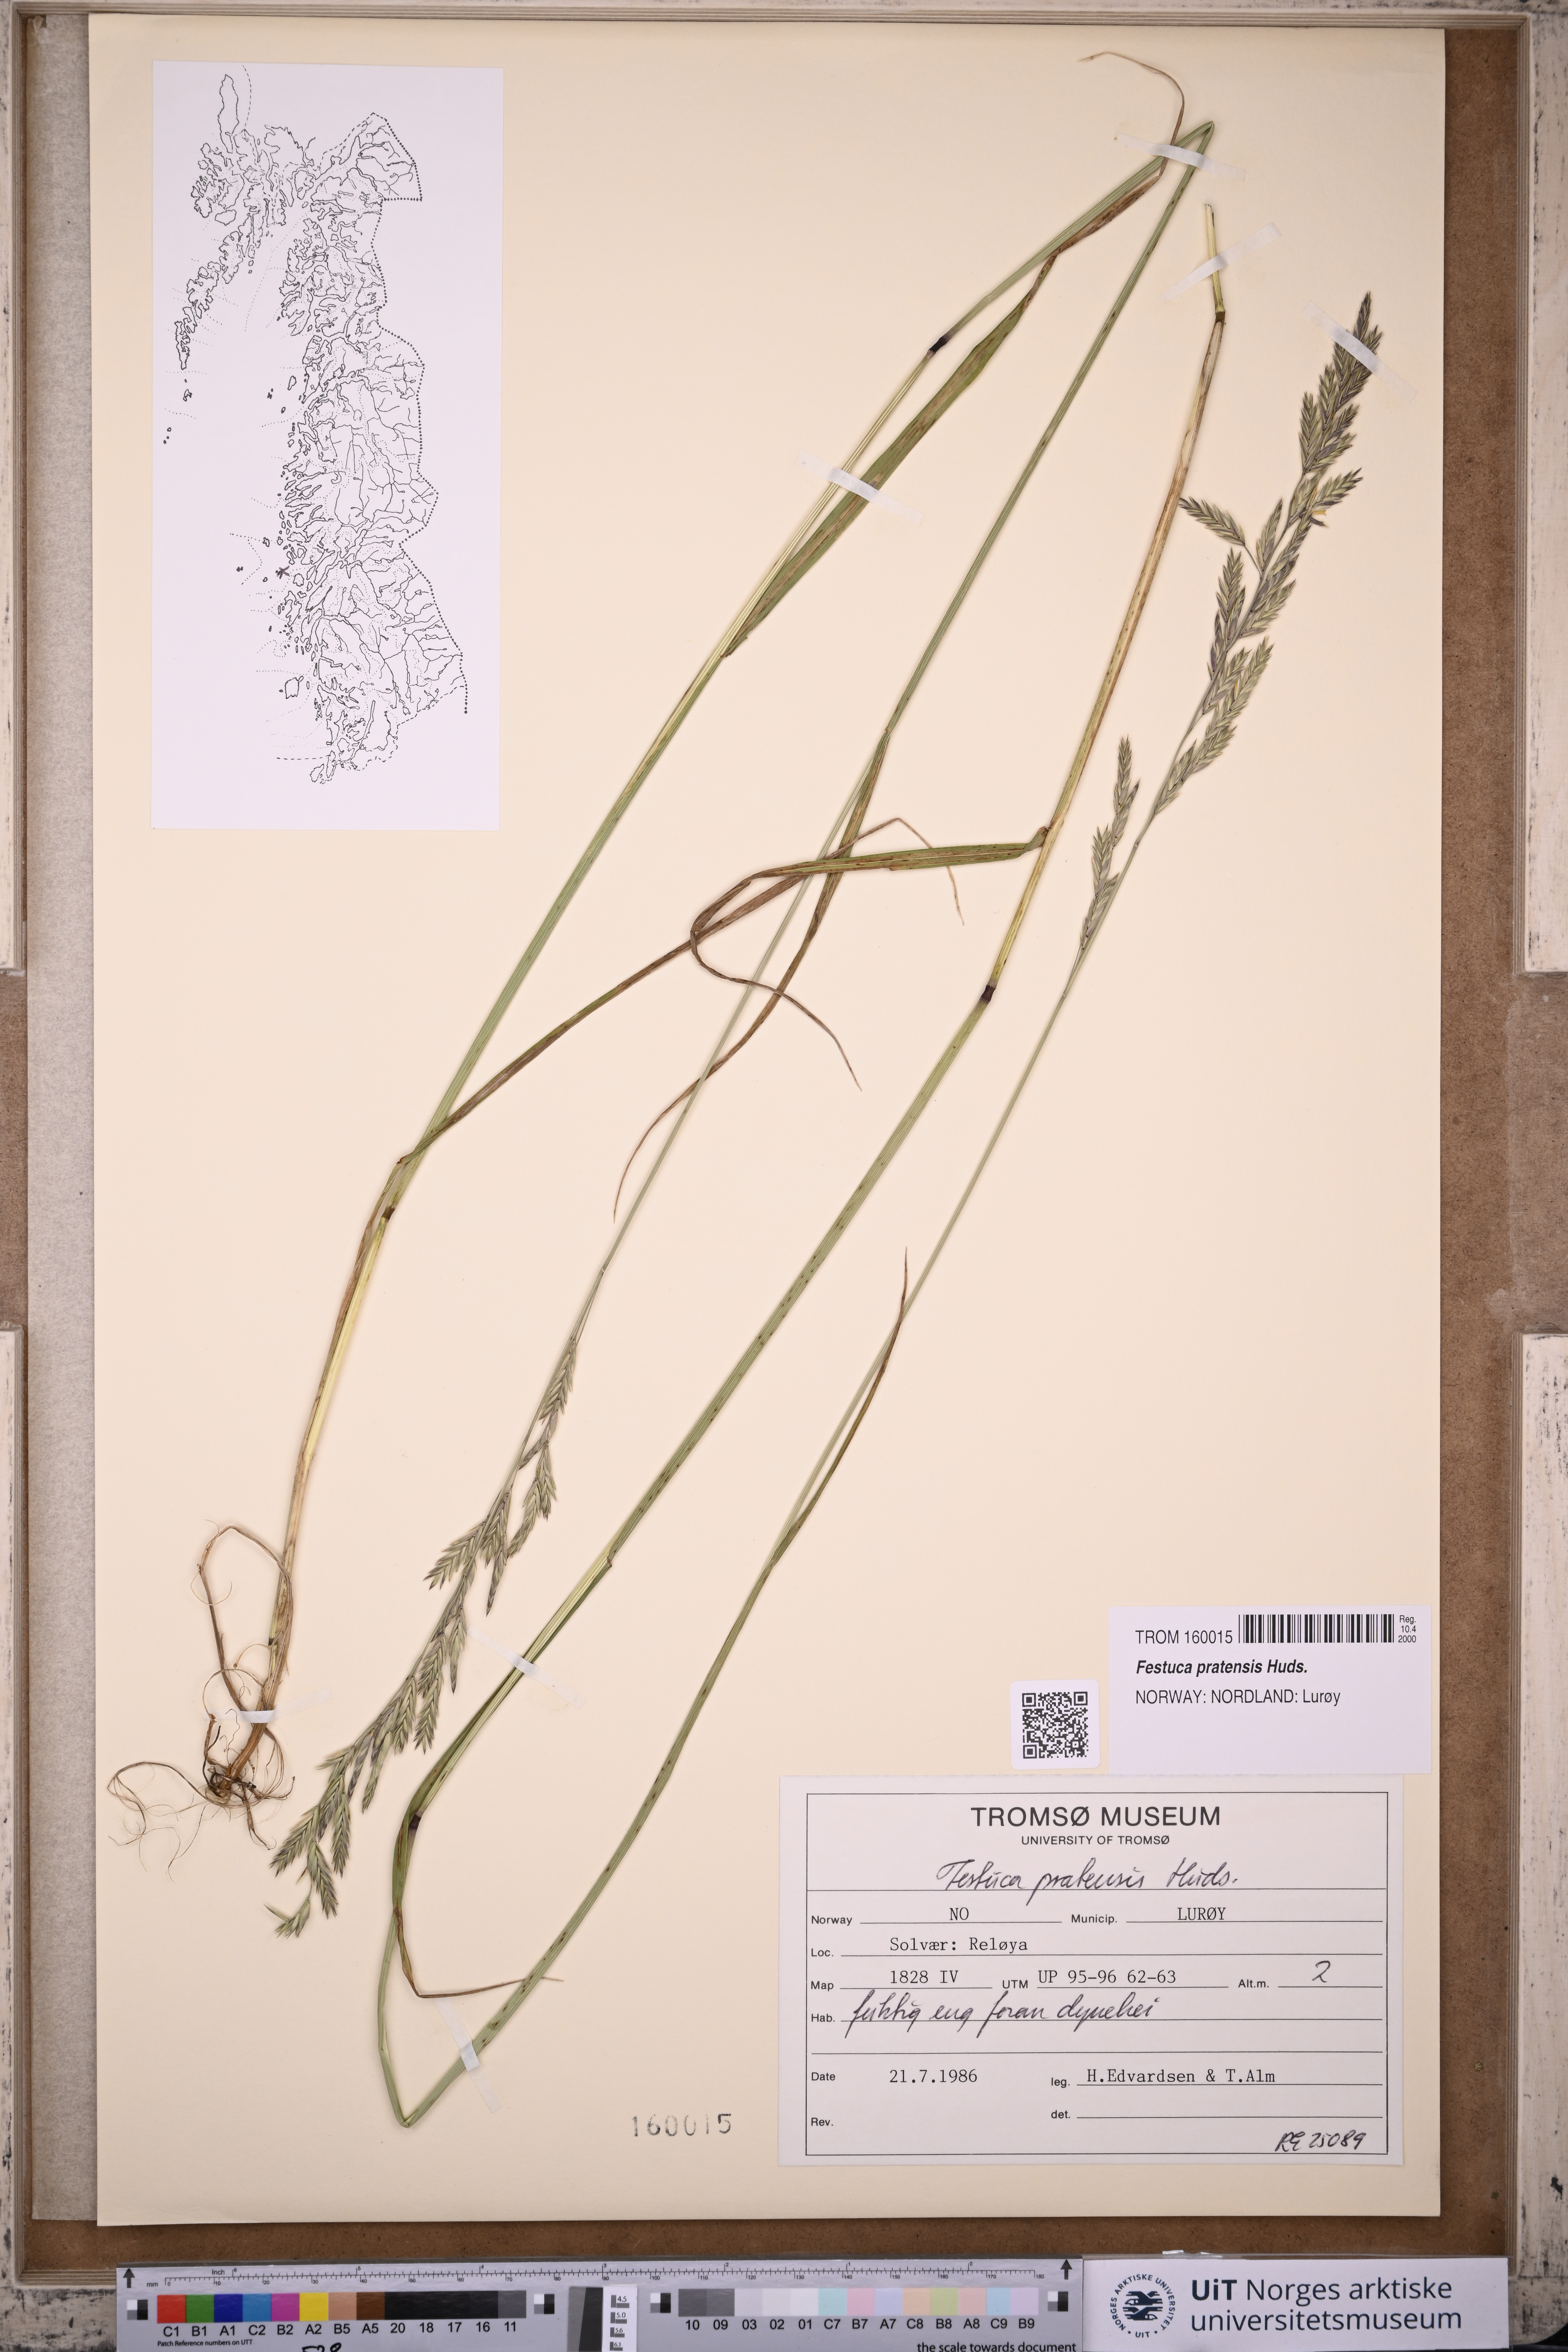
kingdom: Plantae
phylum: Tracheophyta
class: Liliopsida
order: Poales
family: Poaceae
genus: Lolium
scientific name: Lolium pratense
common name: Dover grass
